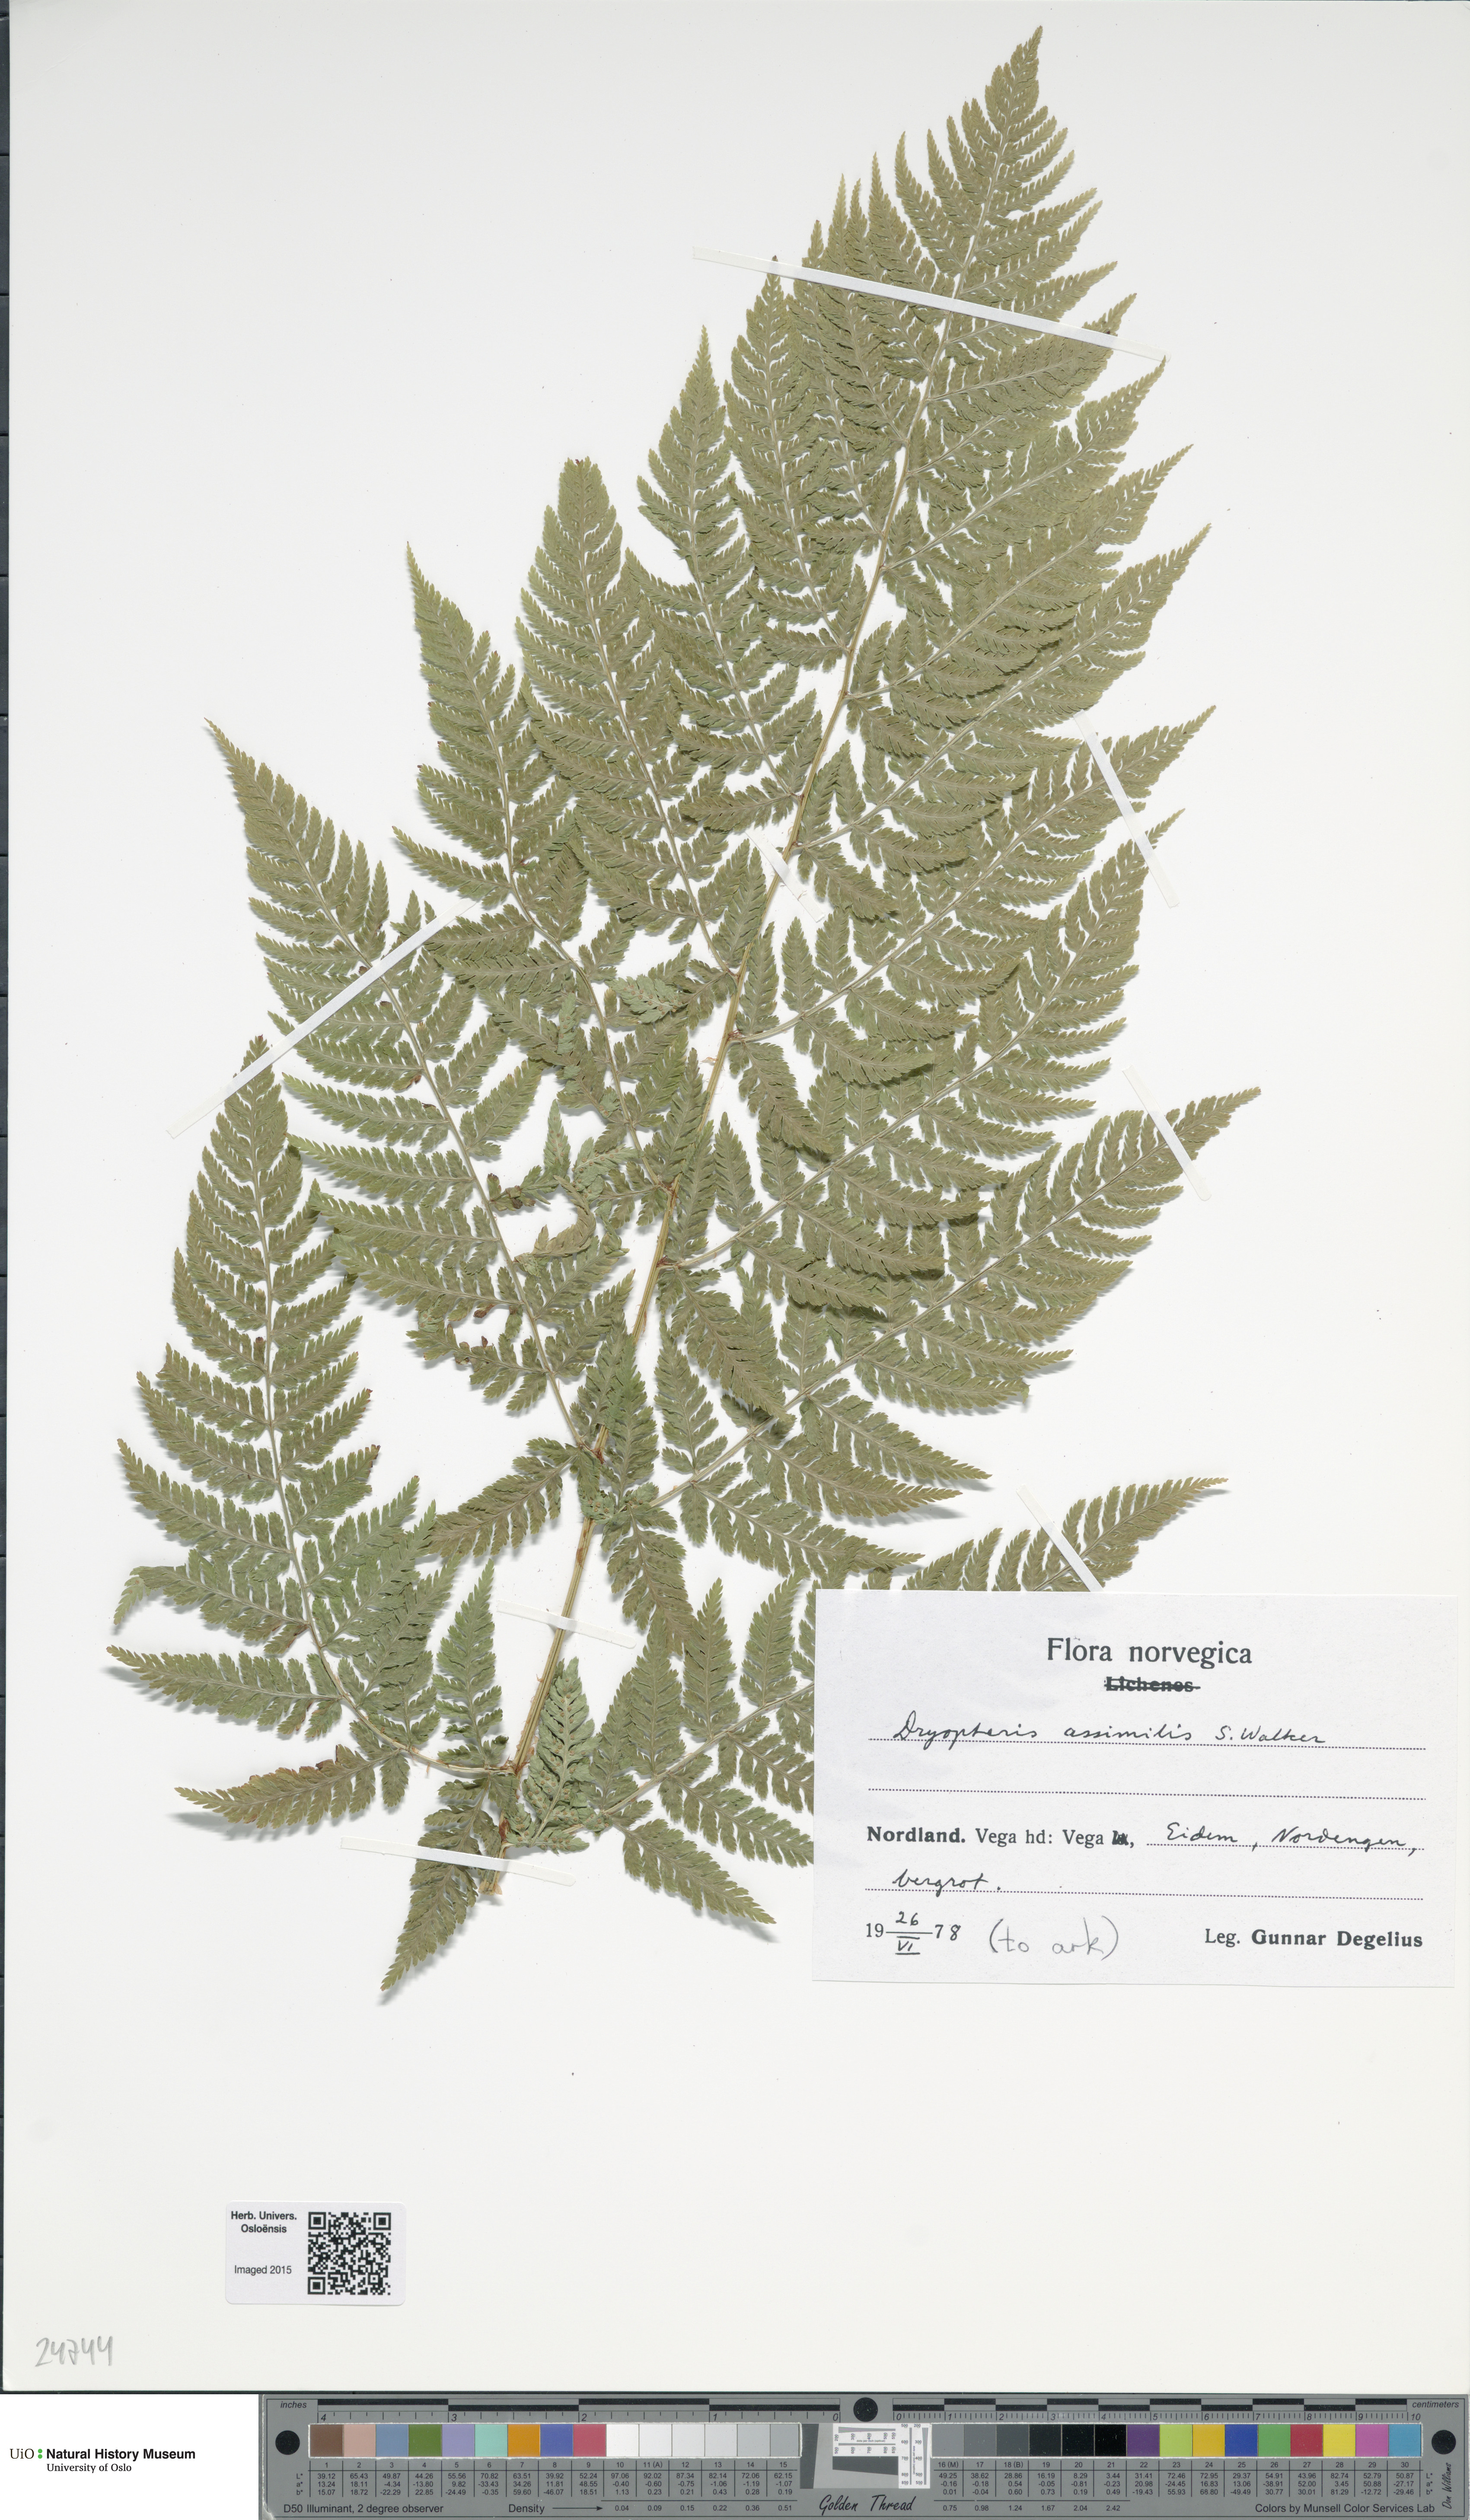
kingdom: Plantae
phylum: Tracheophyta
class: Polypodiopsida
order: Polypodiales
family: Dryopteridaceae
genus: Dryopteris
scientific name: Dryopteris expansa
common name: Northern buckler fern
